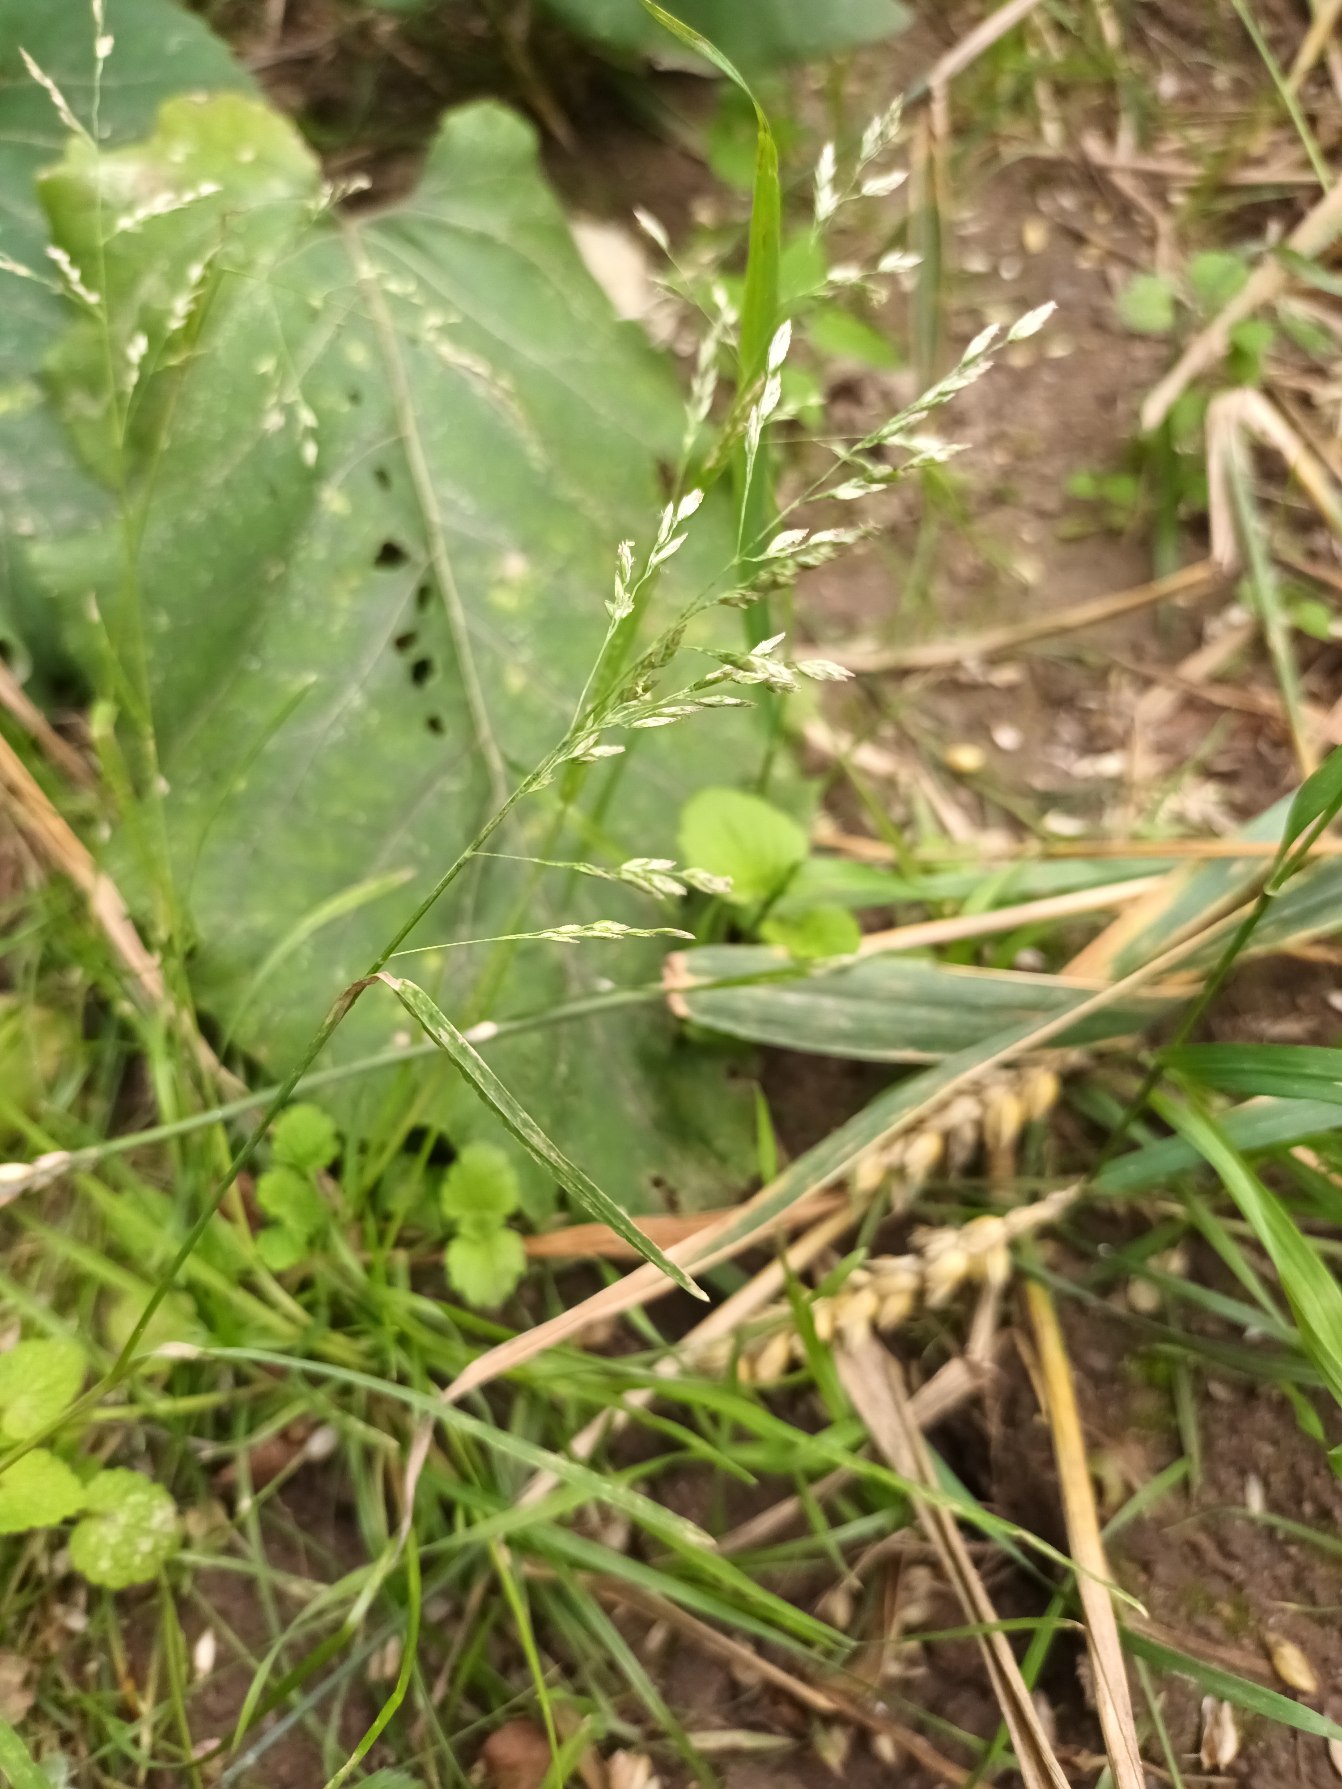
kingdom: Plantae
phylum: Tracheophyta
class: Liliopsida
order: Poales
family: Poaceae
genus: Poa
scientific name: Poa annua
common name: Enårig rapgræs
